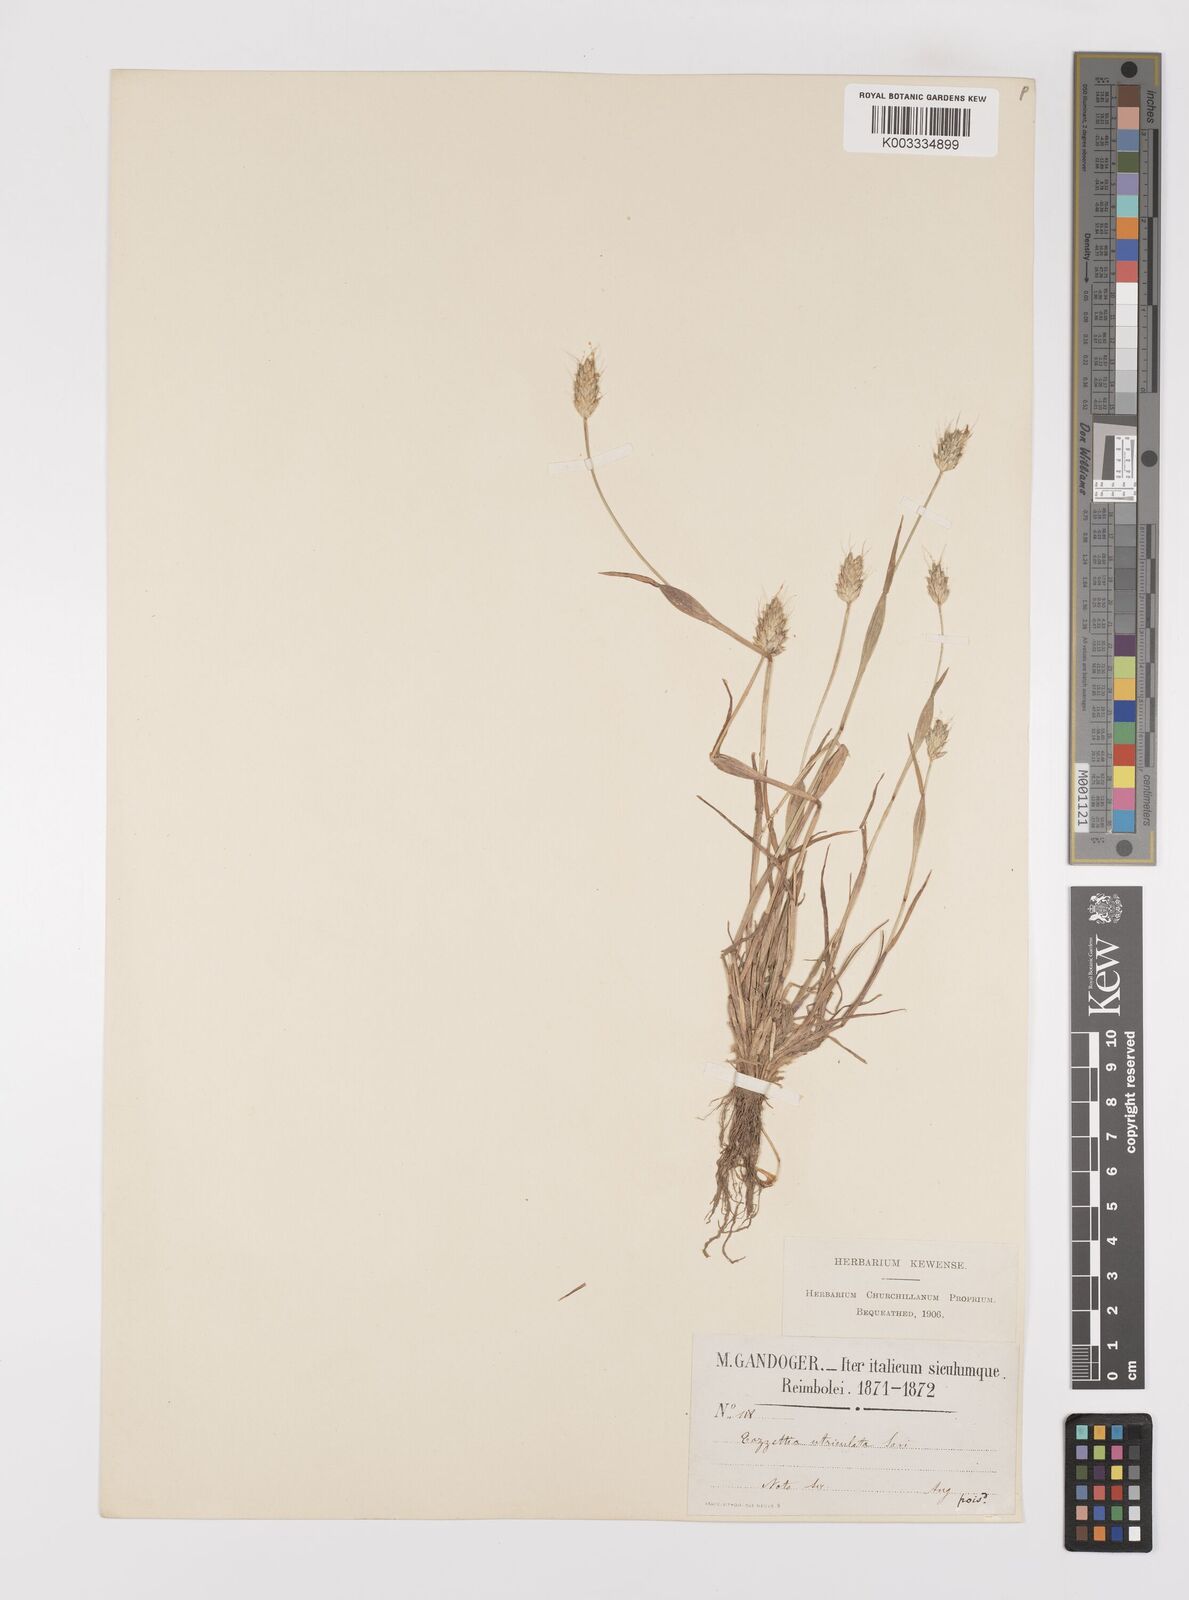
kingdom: Plantae
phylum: Tracheophyta
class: Liliopsida
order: Poales
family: Poaceae
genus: Alopecurus
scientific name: Alopecurus rendlei
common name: Rendle's meadow foxtail
